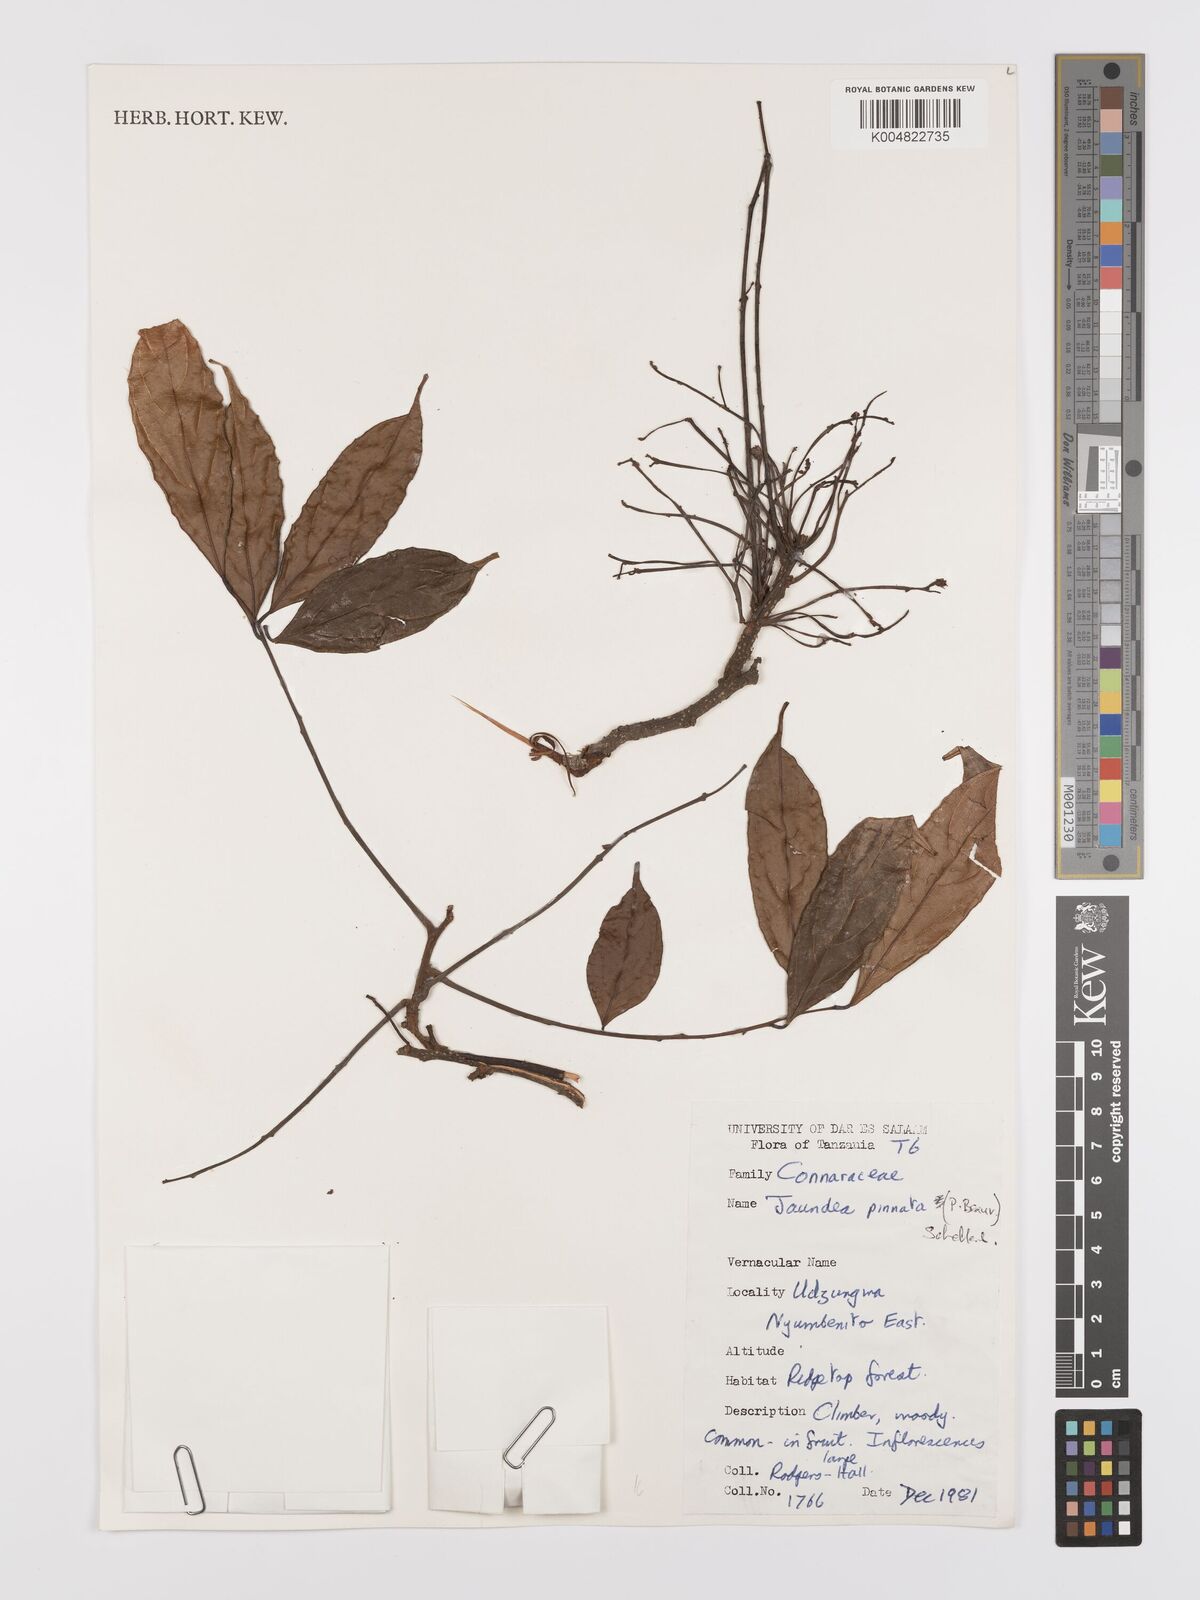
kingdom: Plantae
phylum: Tracheophyta
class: Magnoliopsida
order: Oxalidales
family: Connaraceae
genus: Rourea
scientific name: Rourea pinnata
